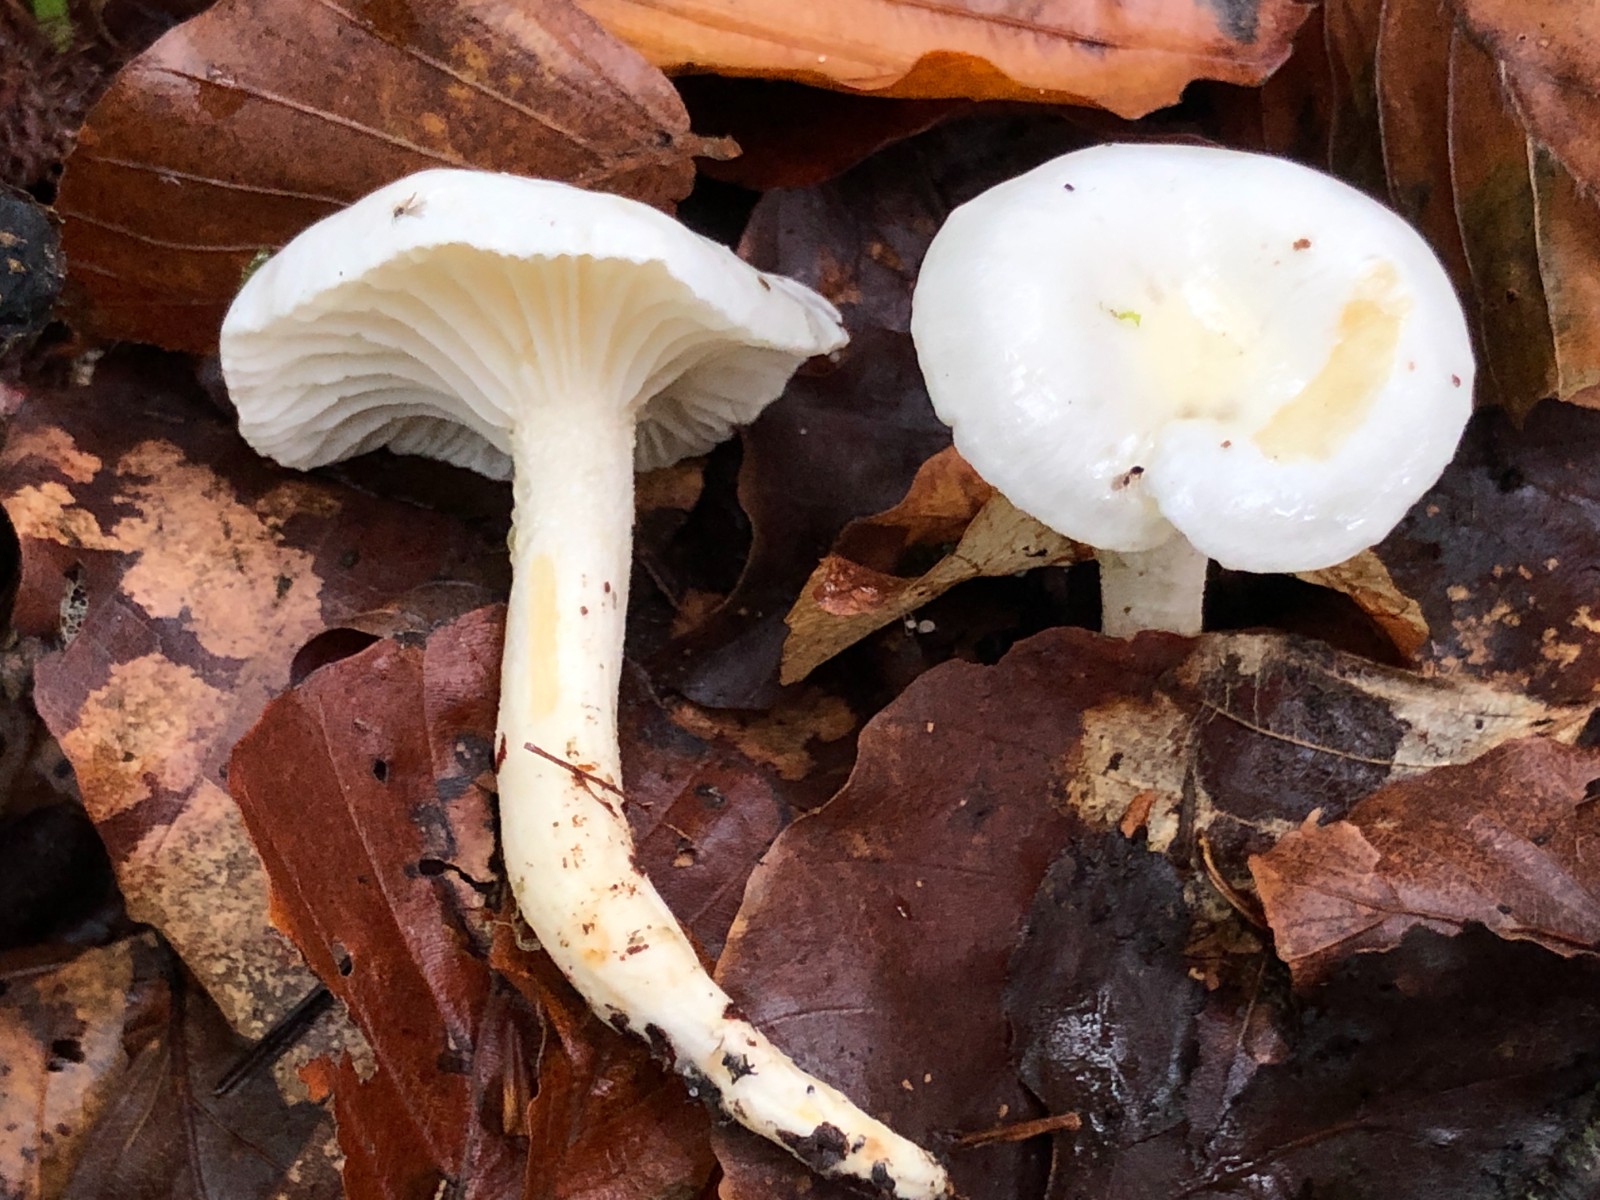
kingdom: Fungi
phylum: Basidiomycota
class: Agaricomycetes
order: Agaricales
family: Hygrophoraceae
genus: Hygrophorus
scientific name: Hygrophorus discoxanthus
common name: ildelugtende sneglehat
